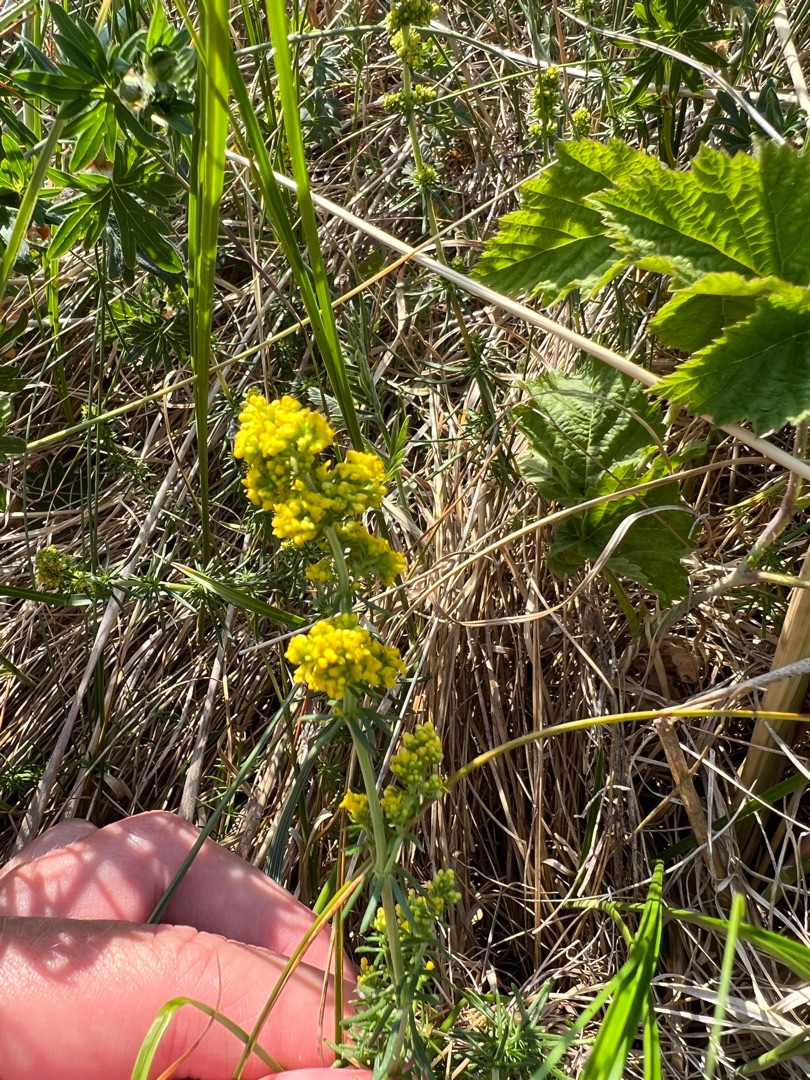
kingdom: Plantae
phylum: Tracheophyta
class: Magnoliopsida
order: Gentianales
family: Rubiaceae
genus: Galium
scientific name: Galium verum
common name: Gul snerre
